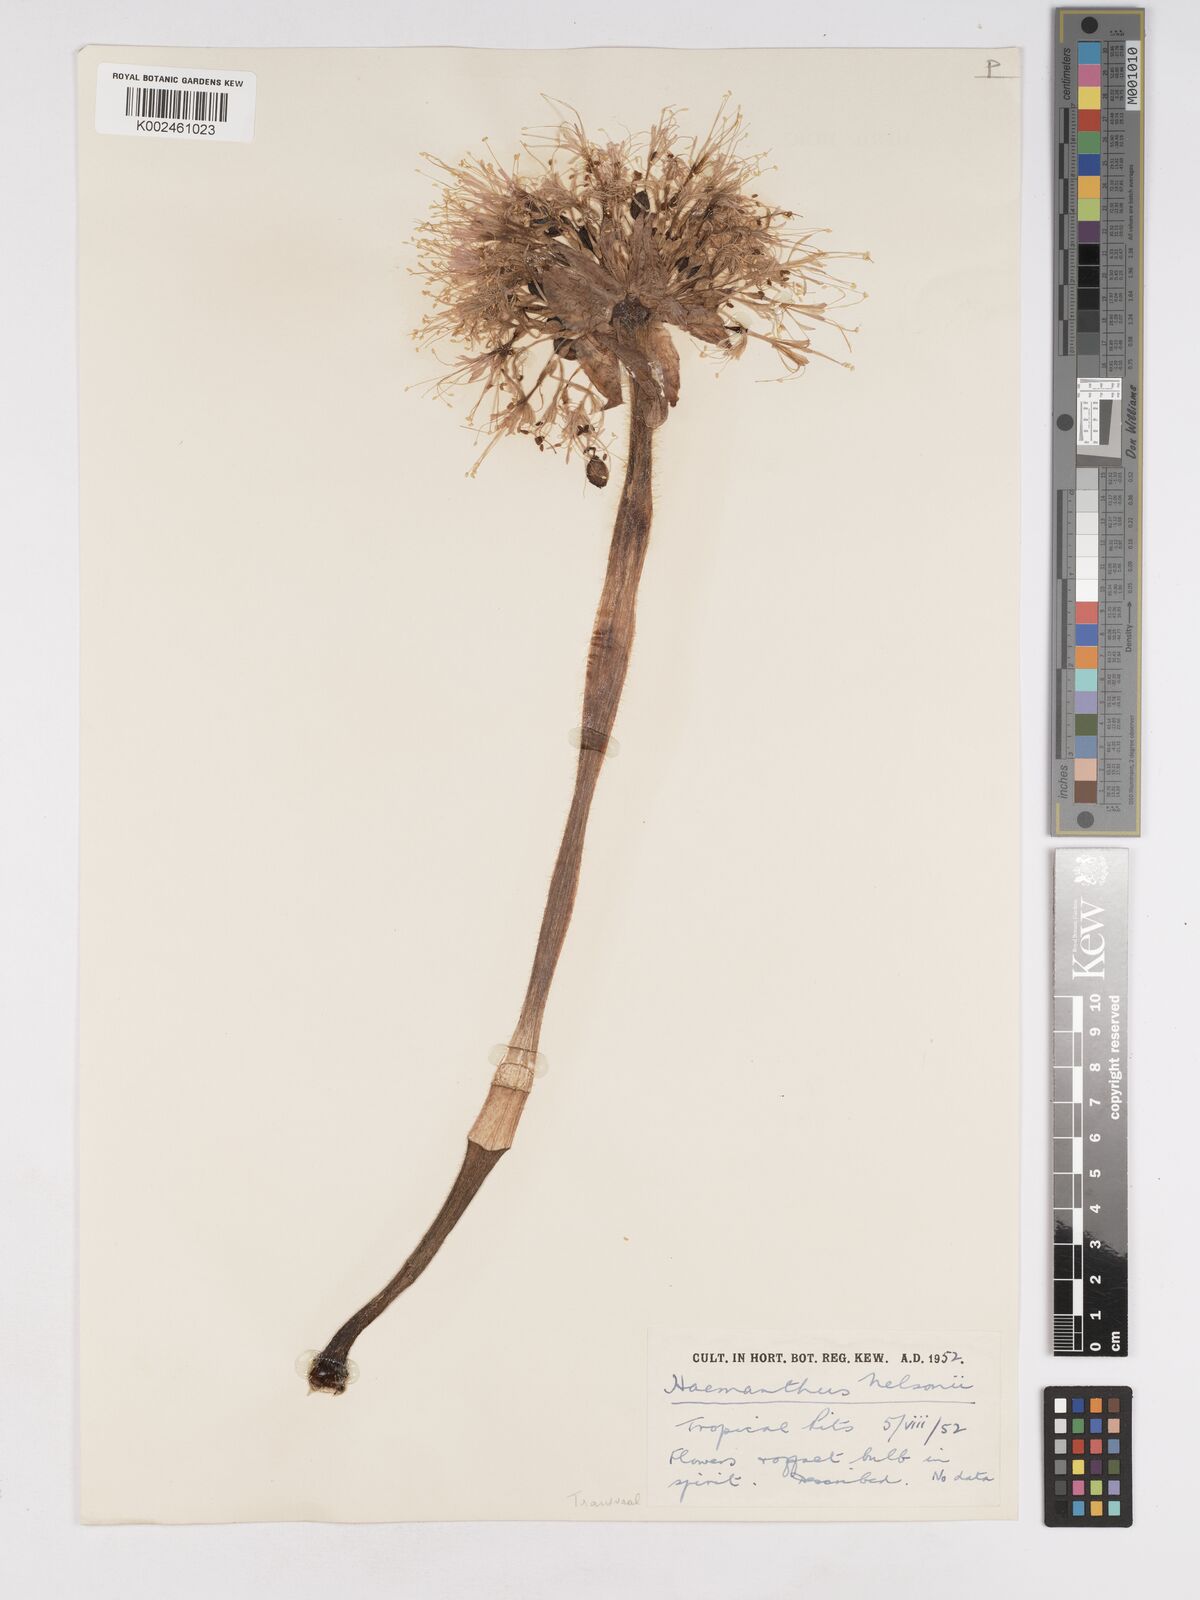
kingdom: Plantae
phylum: Tracheophyta
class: Liliopsida
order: Asparagales
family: Amaryllidaceae
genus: Haemanthus
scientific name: Haemanthus humilis
